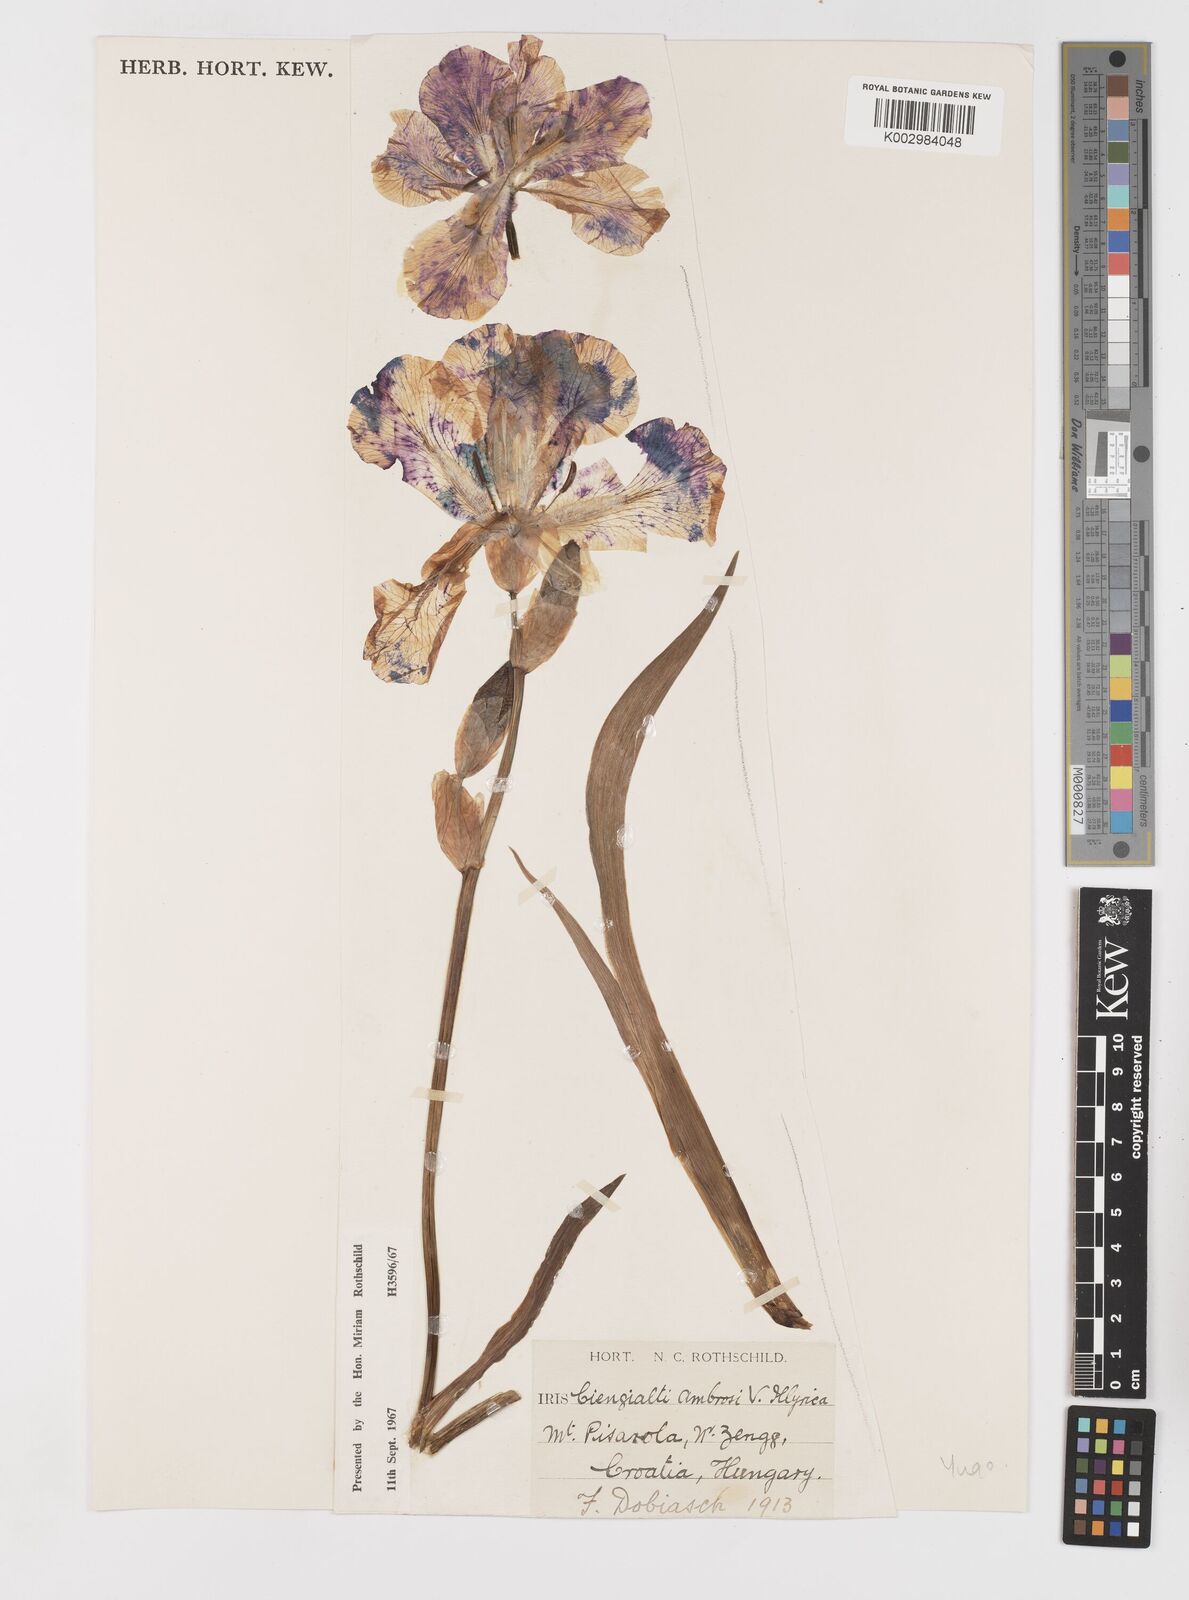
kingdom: Plantae
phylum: Tracheophyta
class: Liliopsida
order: Asparagales
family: Iridaceae
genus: Iris
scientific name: Iris pallida
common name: Sweet iris
